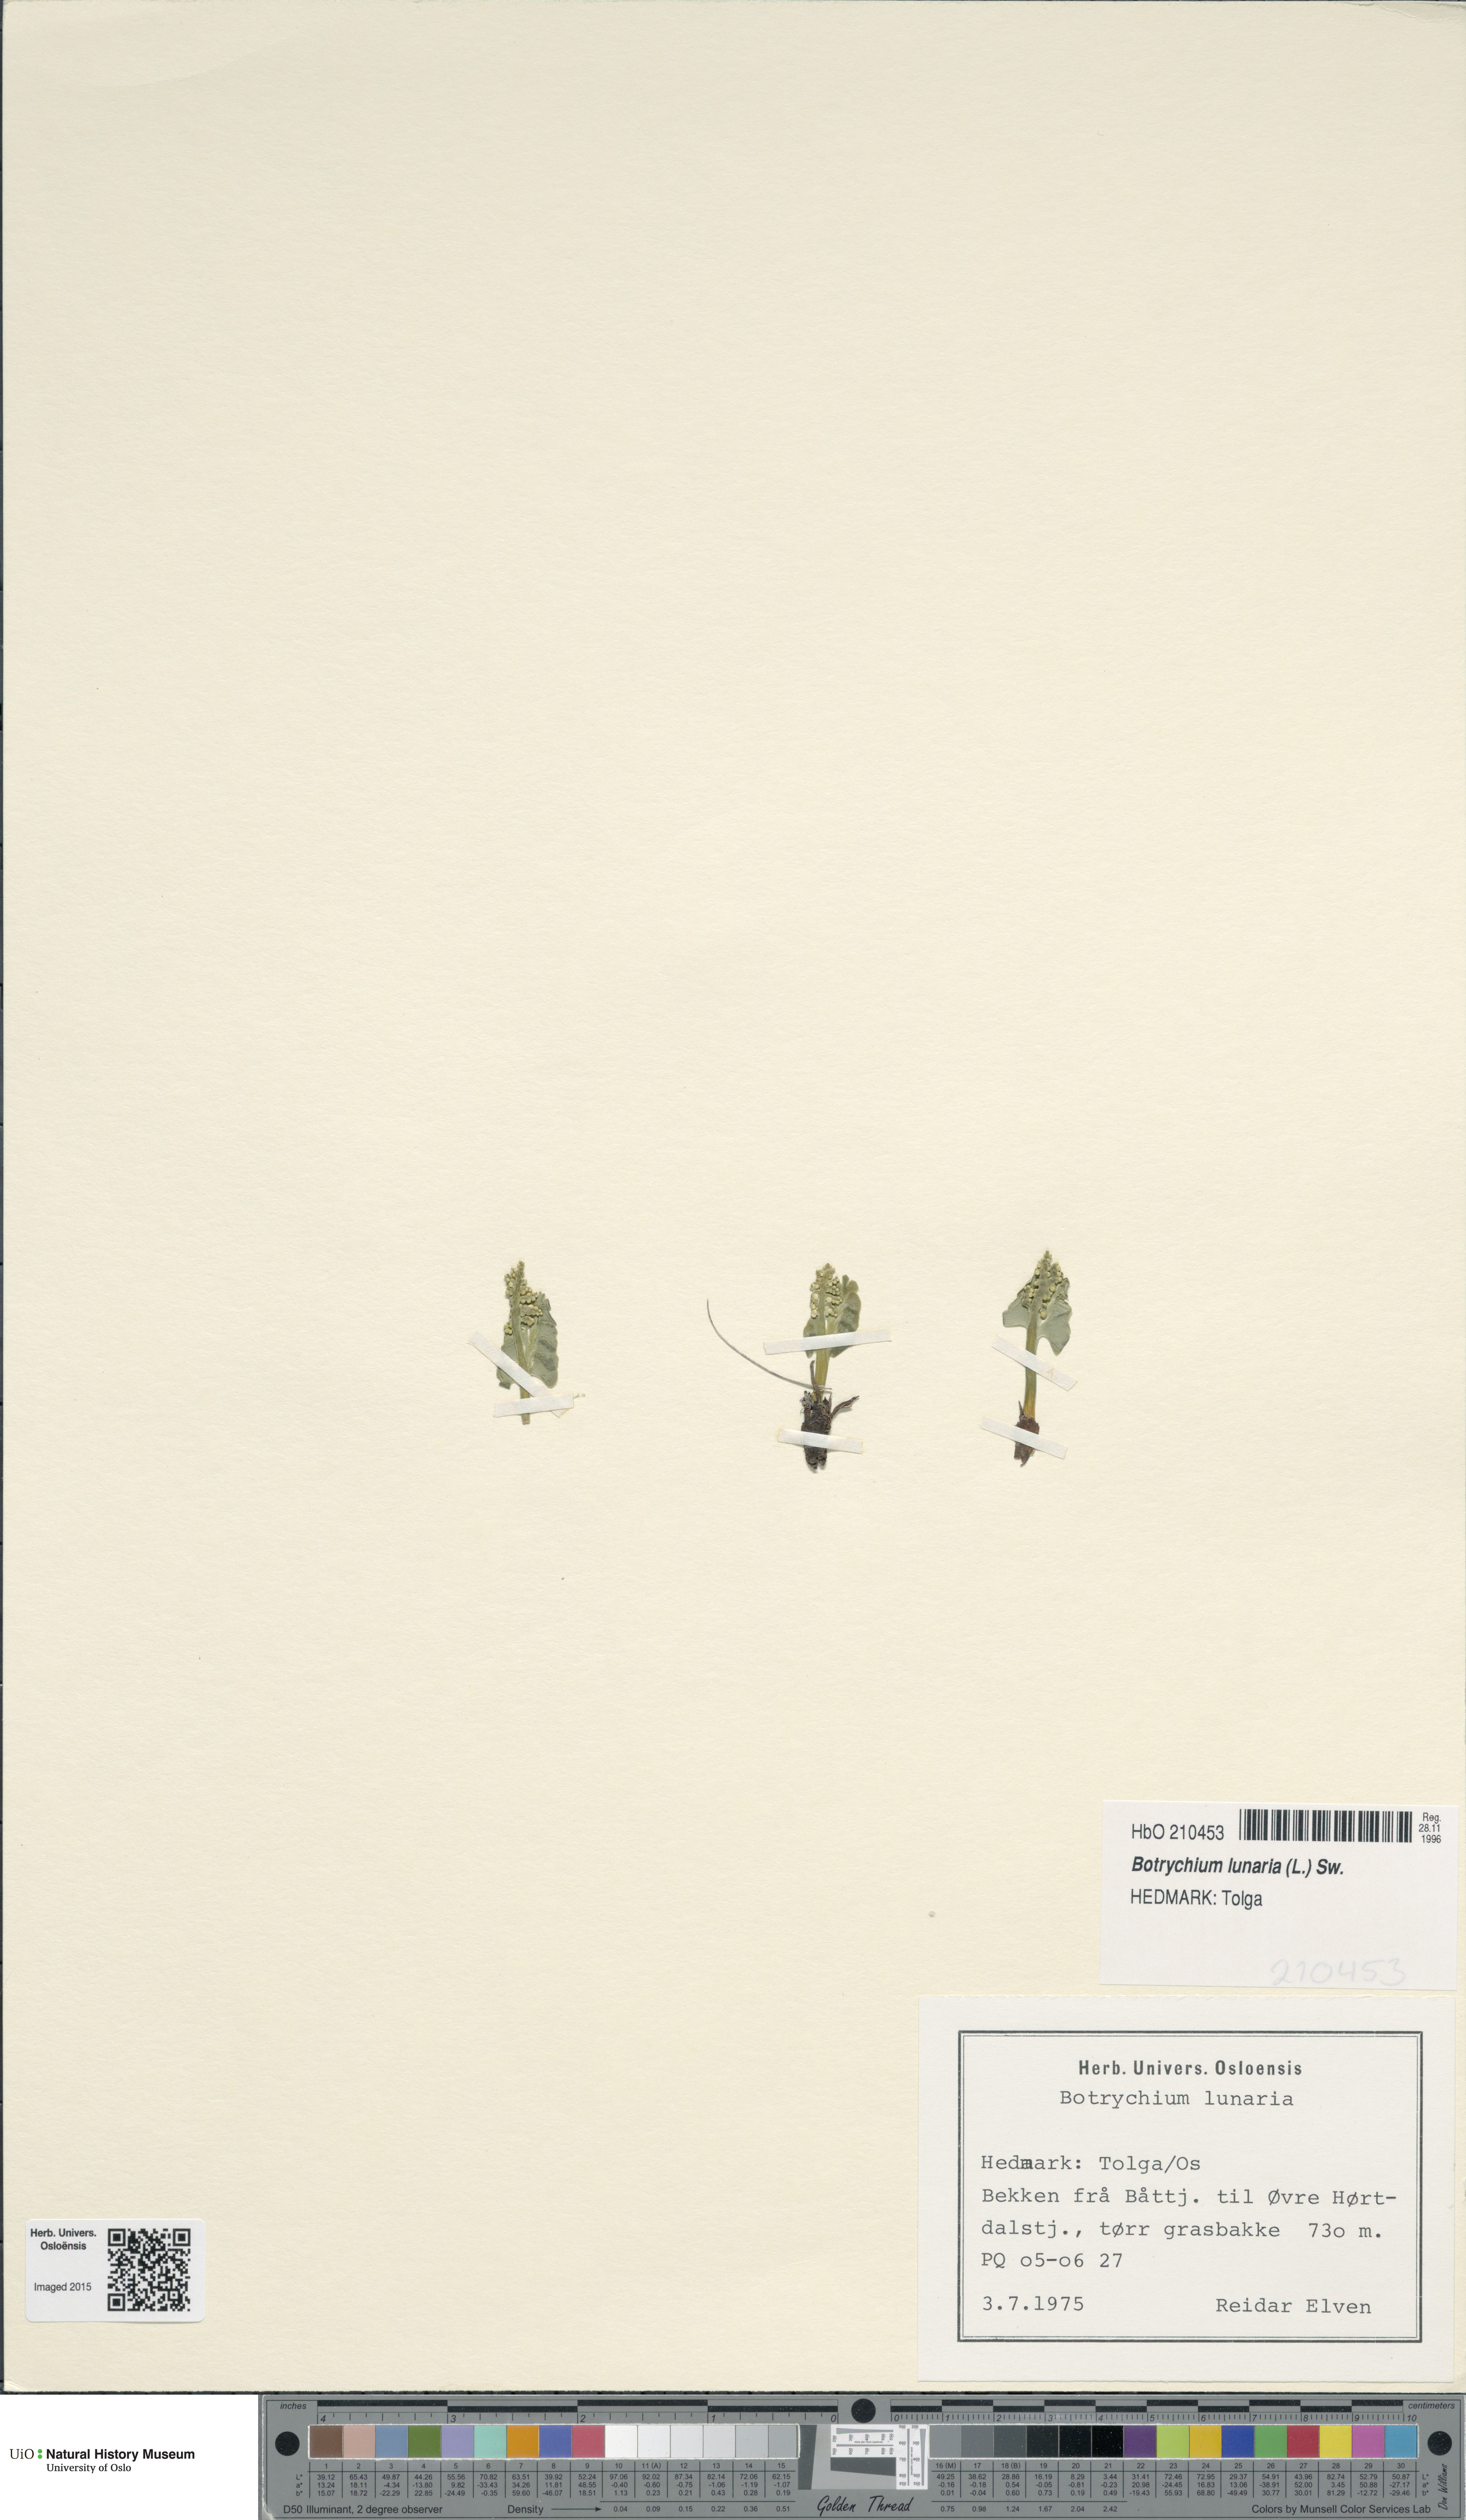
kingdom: Plantae
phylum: Tracheophyta
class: Polypodiopsida
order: Ophioglossales
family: Ophioglossaceae
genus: Botrychium
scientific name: Botrychium lunaria
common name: Moonwort
